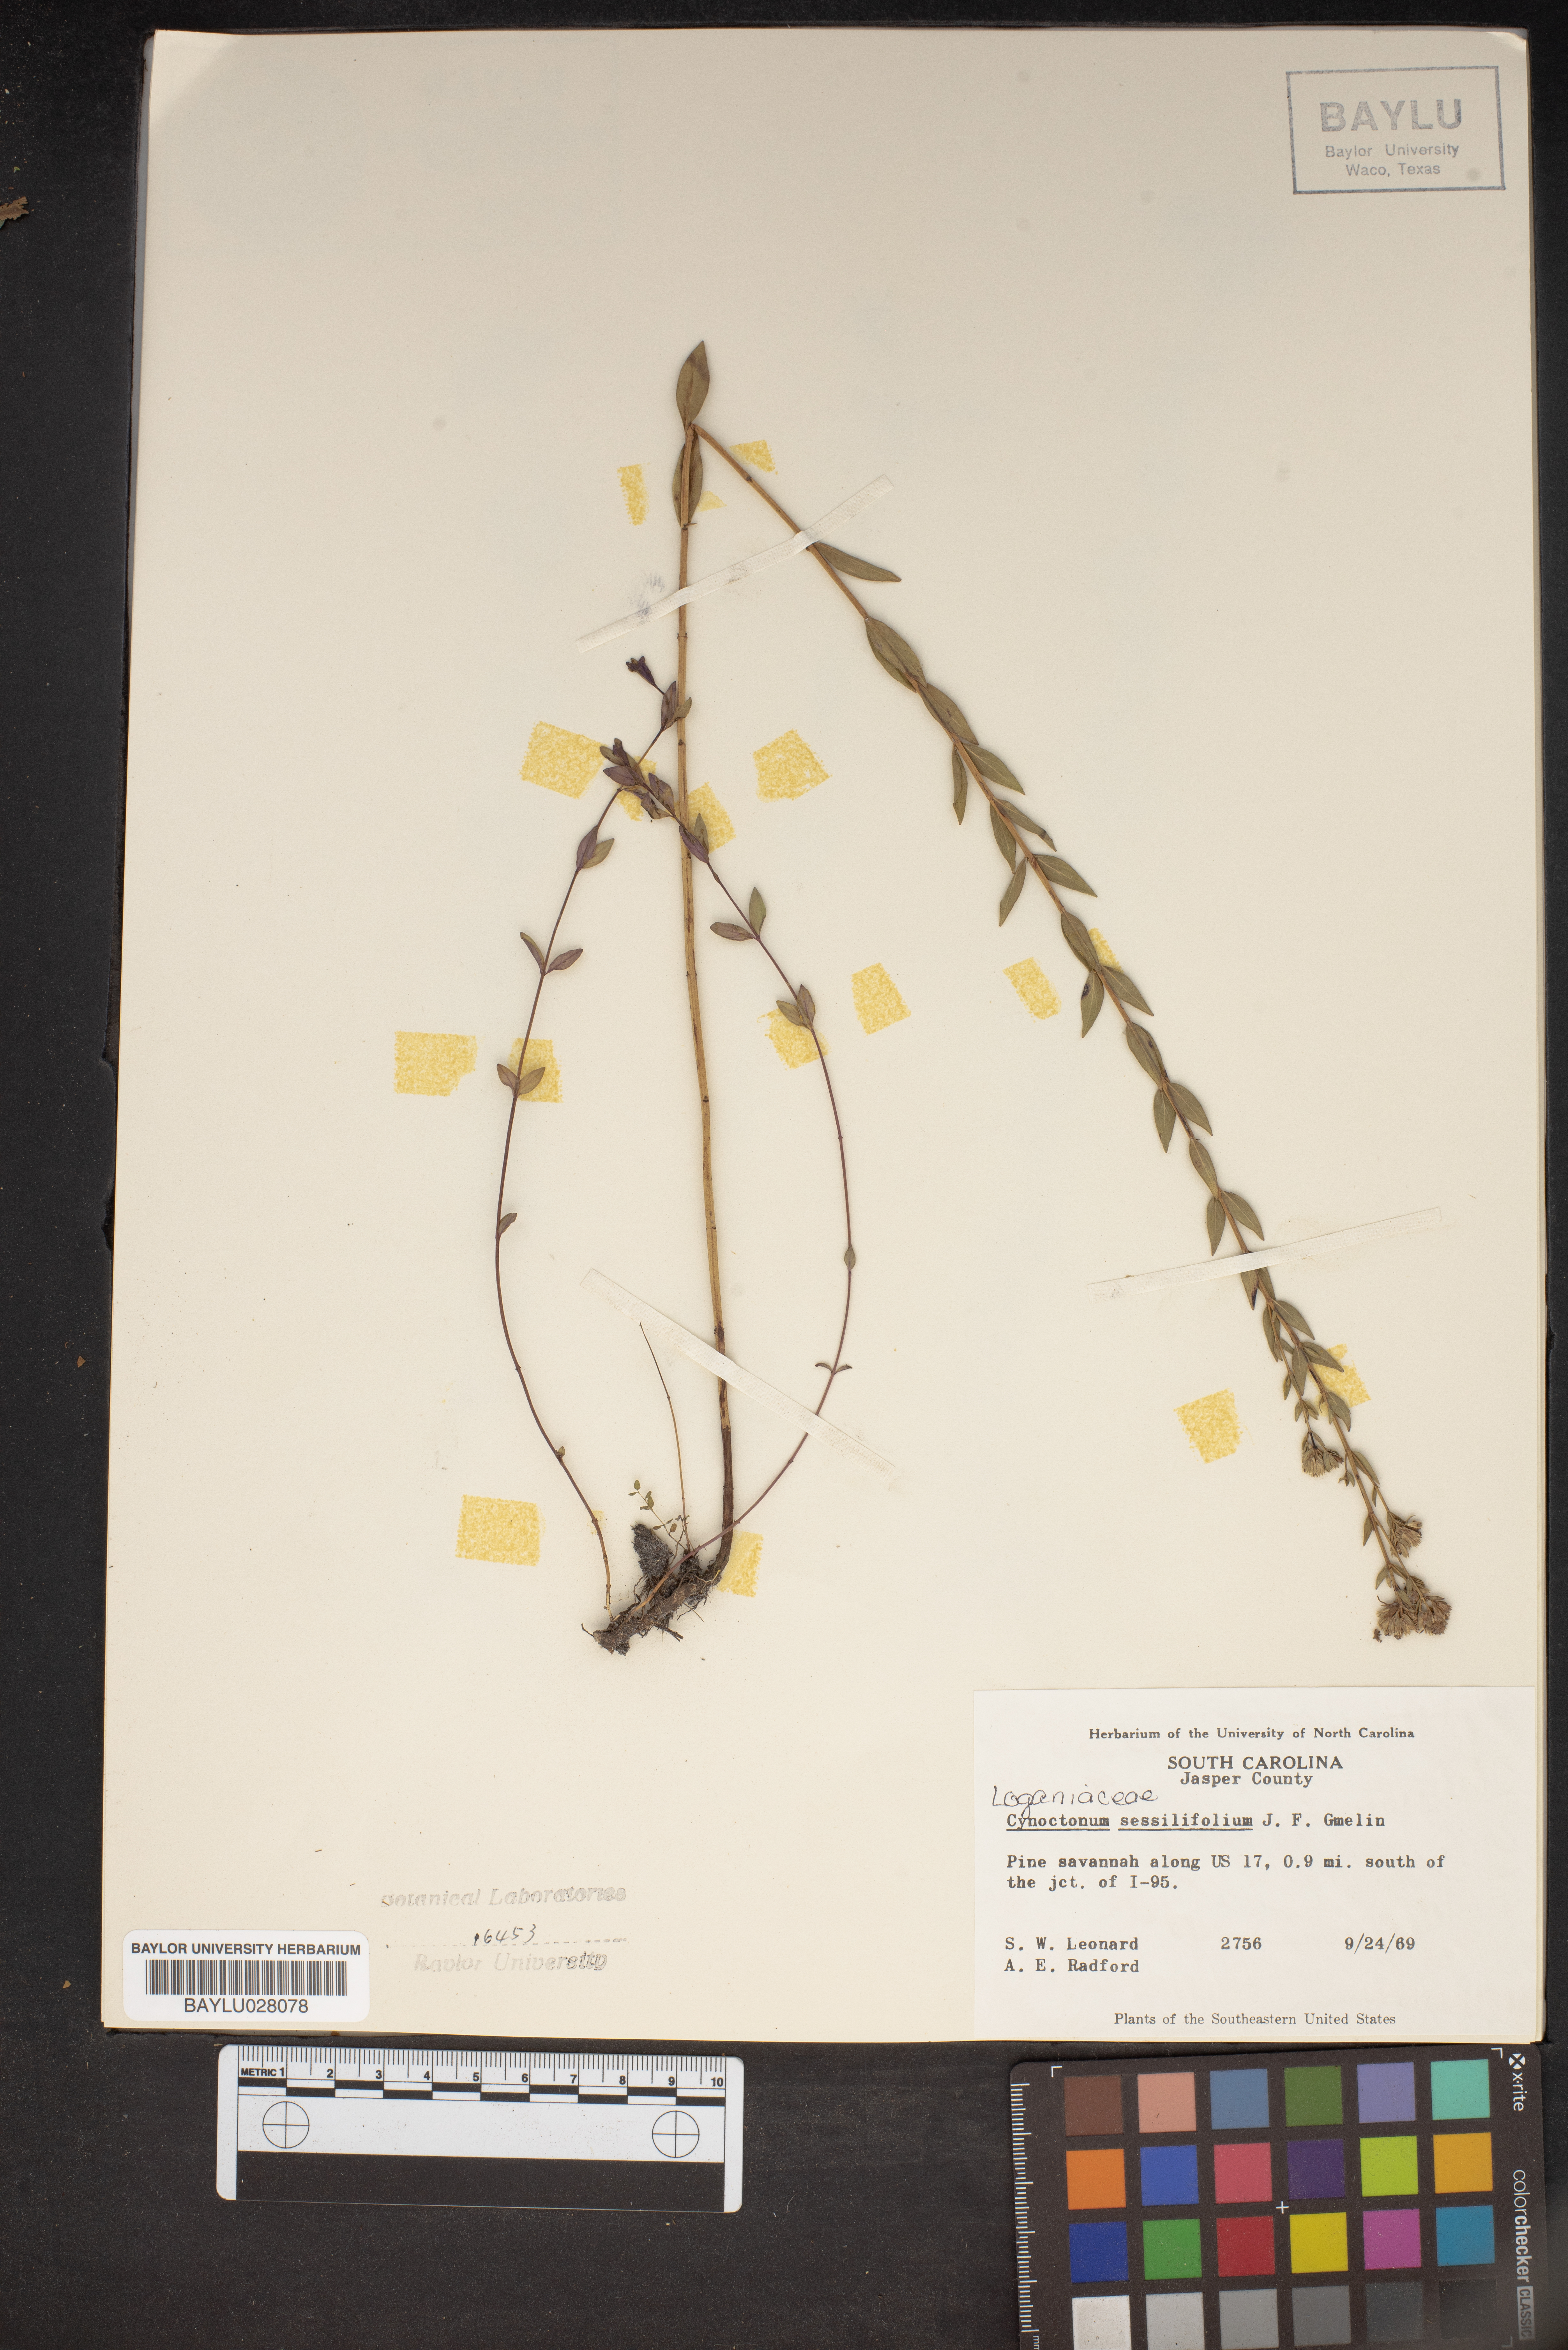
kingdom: Plantae
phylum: Tracheophyta
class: Magnoliopsida
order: Gentianales
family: Loganiaceae
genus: Mitreola
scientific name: Mitreola sessilifolia
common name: Swamp hornpod
